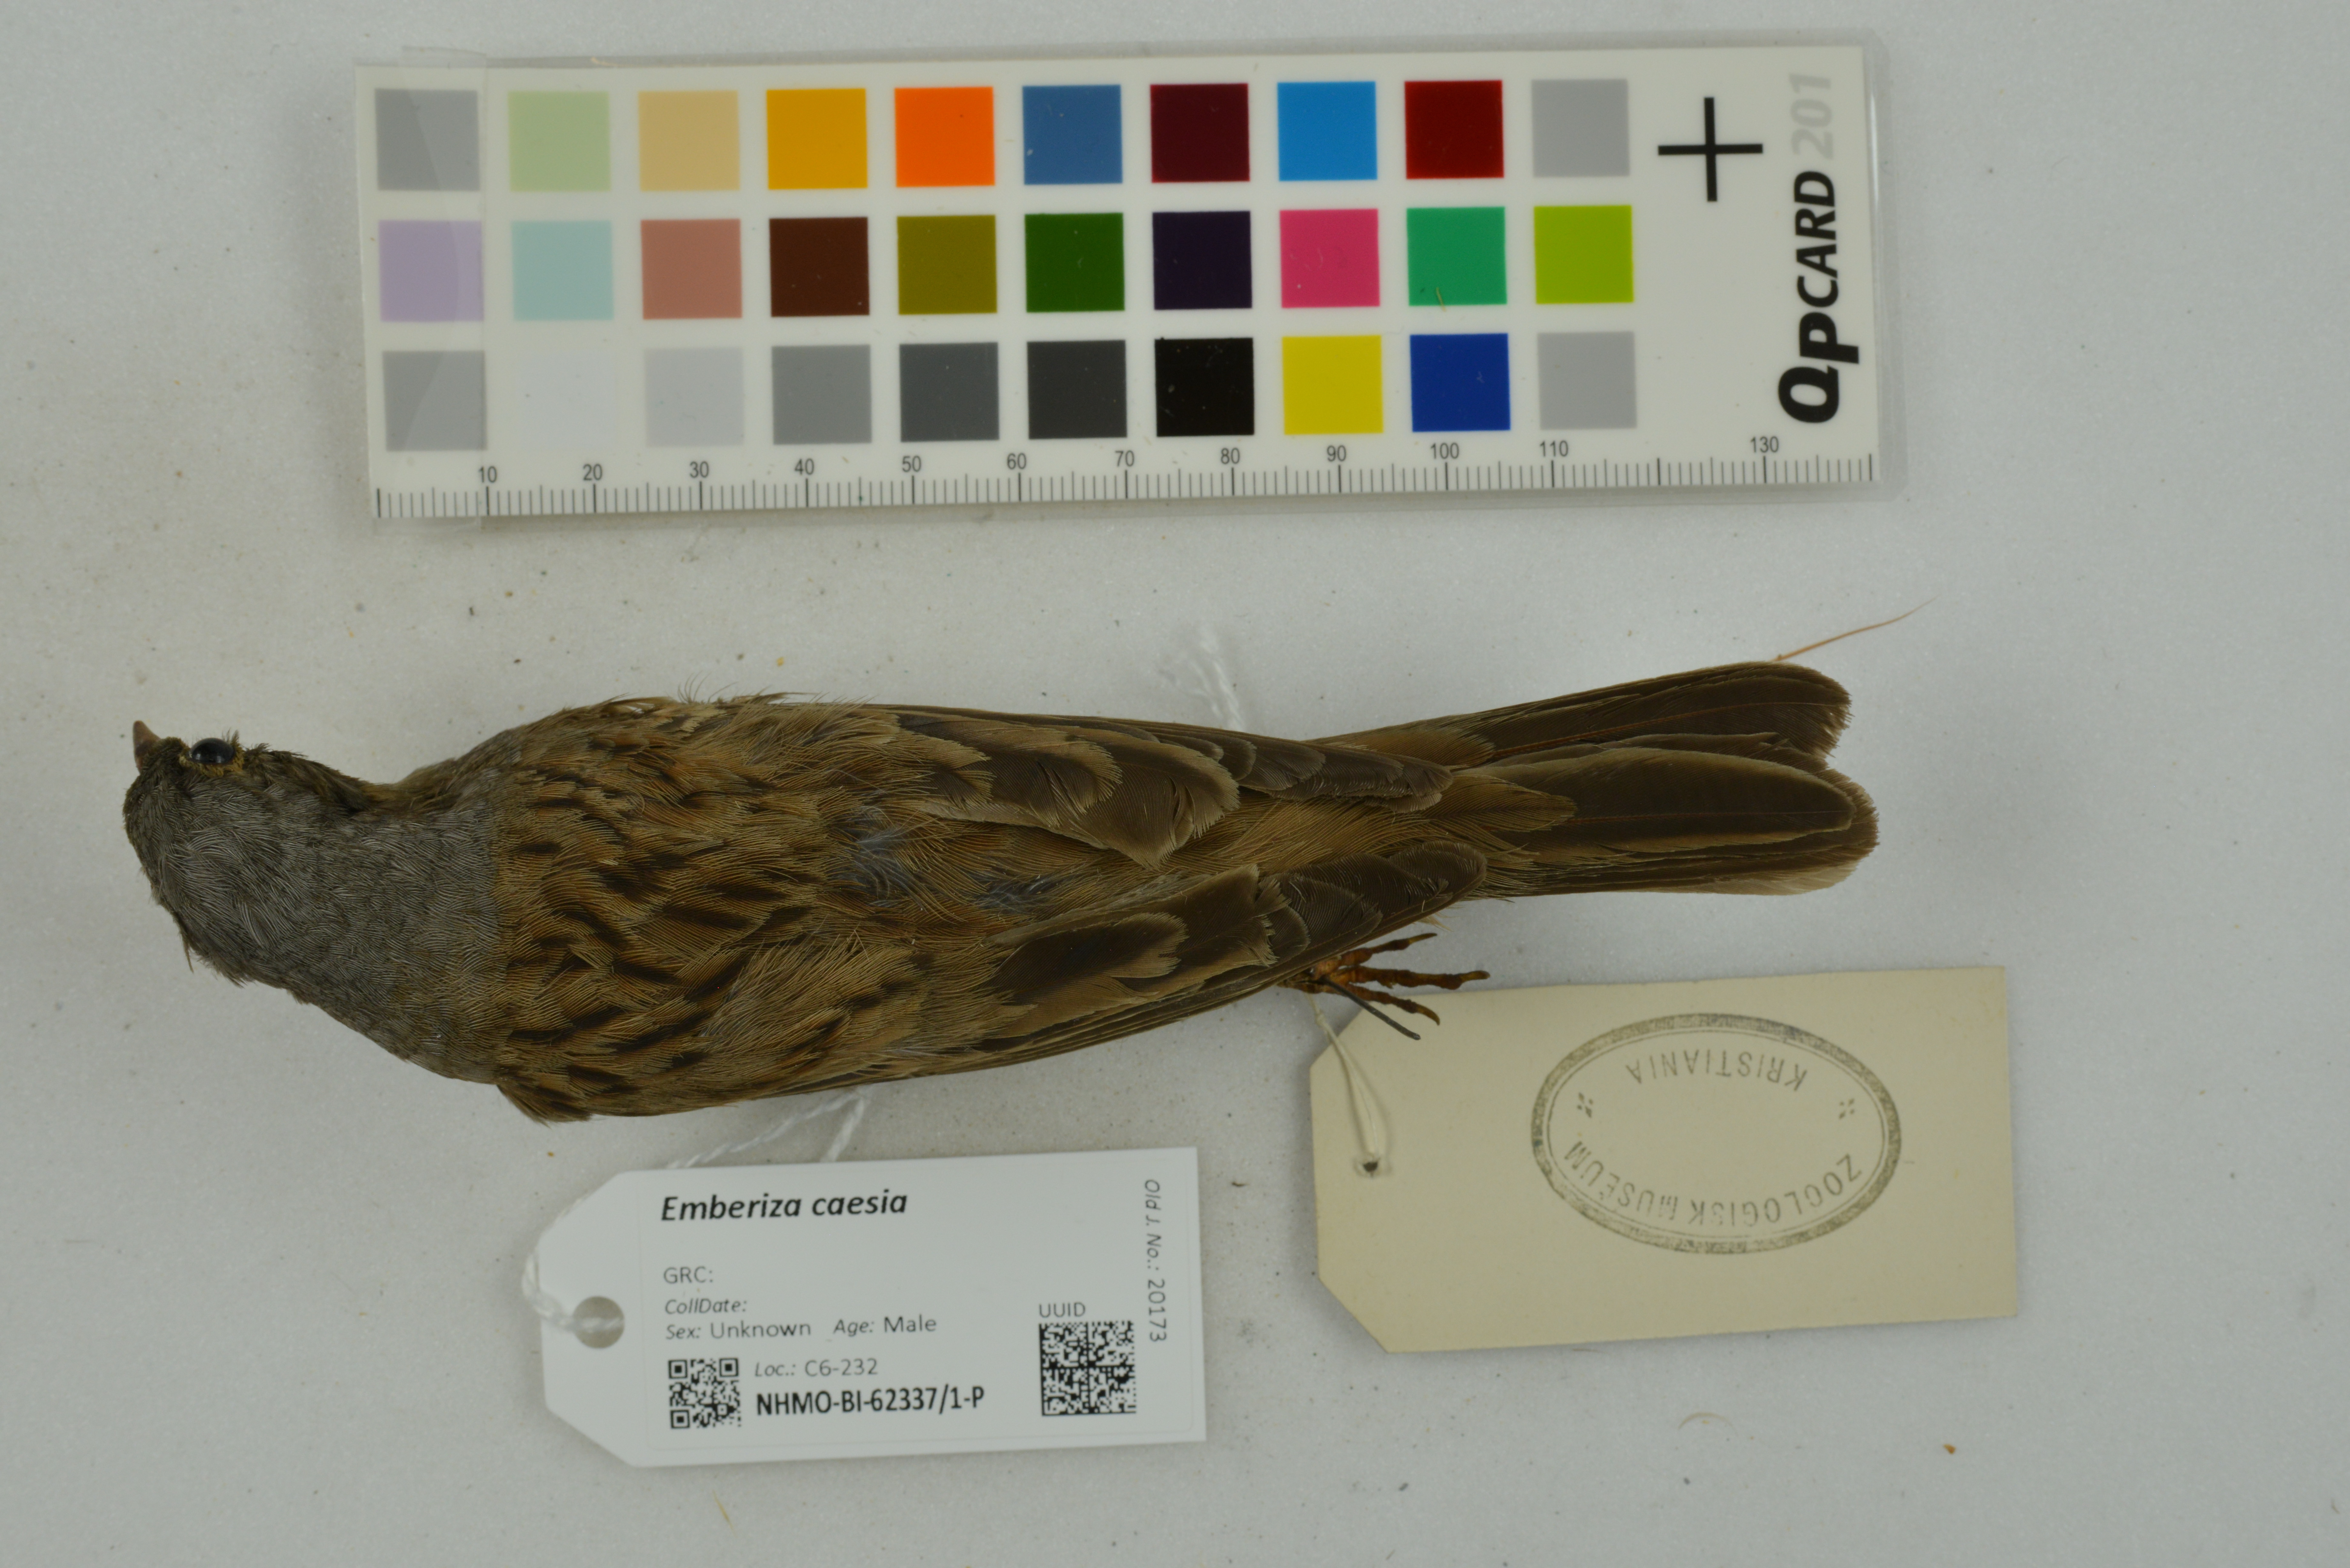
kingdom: Animalia
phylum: Chordata
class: Aves
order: Passeriformes
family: Emberizidae
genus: Emberiza
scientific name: Emberiza caesia
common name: Cretzschmar's bunting
